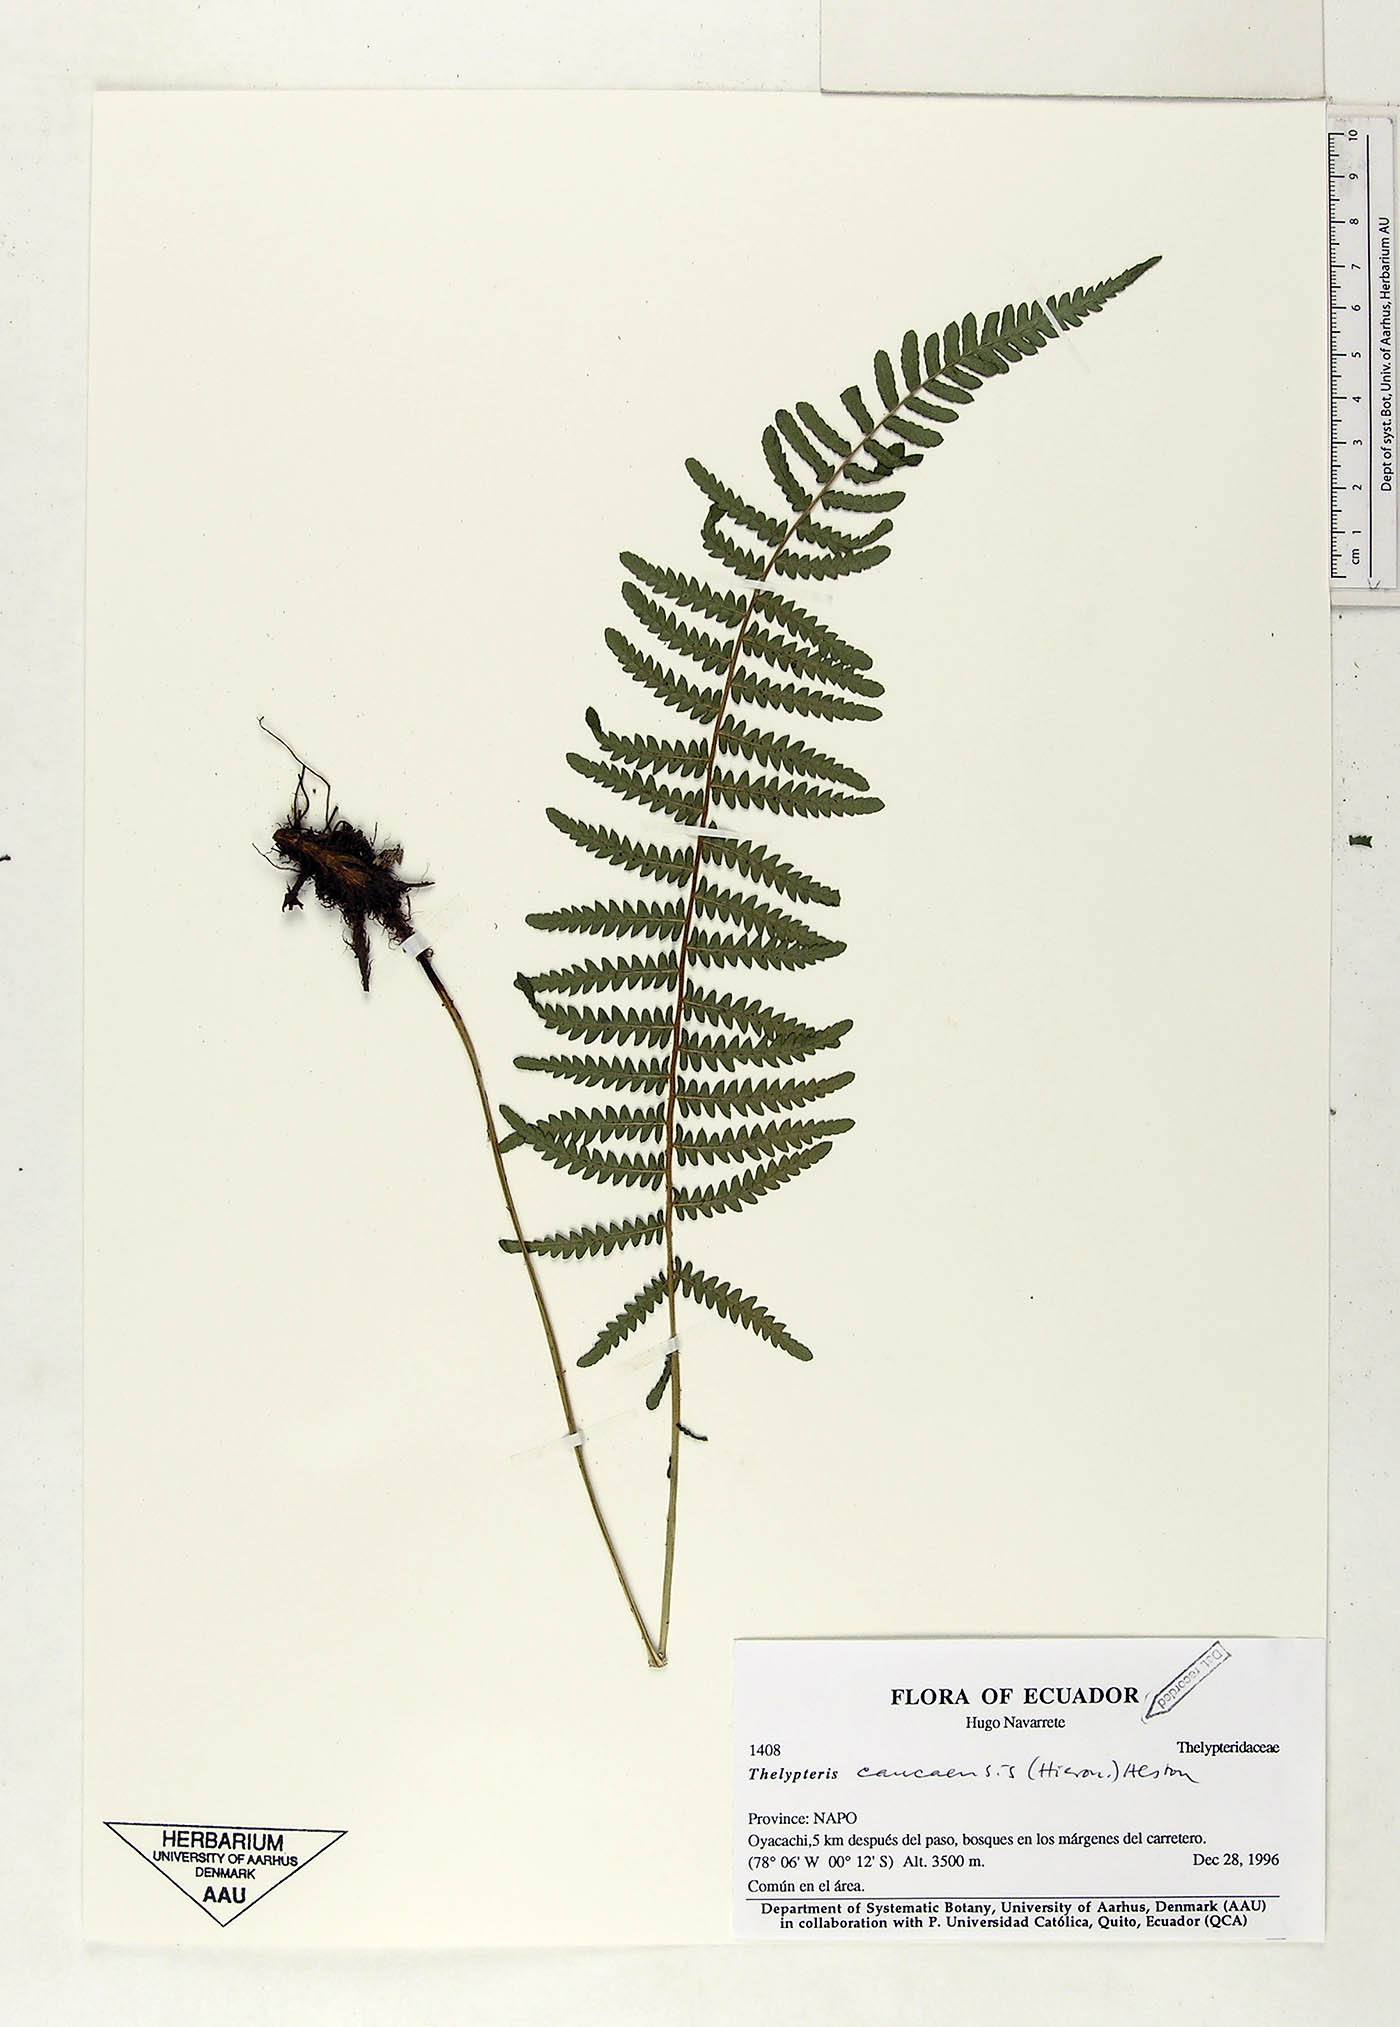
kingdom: Plantae
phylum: Tracheophyta
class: Polypodiopsida
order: Polypodiales
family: Thelypteridaceae
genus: Amauropelta
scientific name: Amauropelta caucaensis
